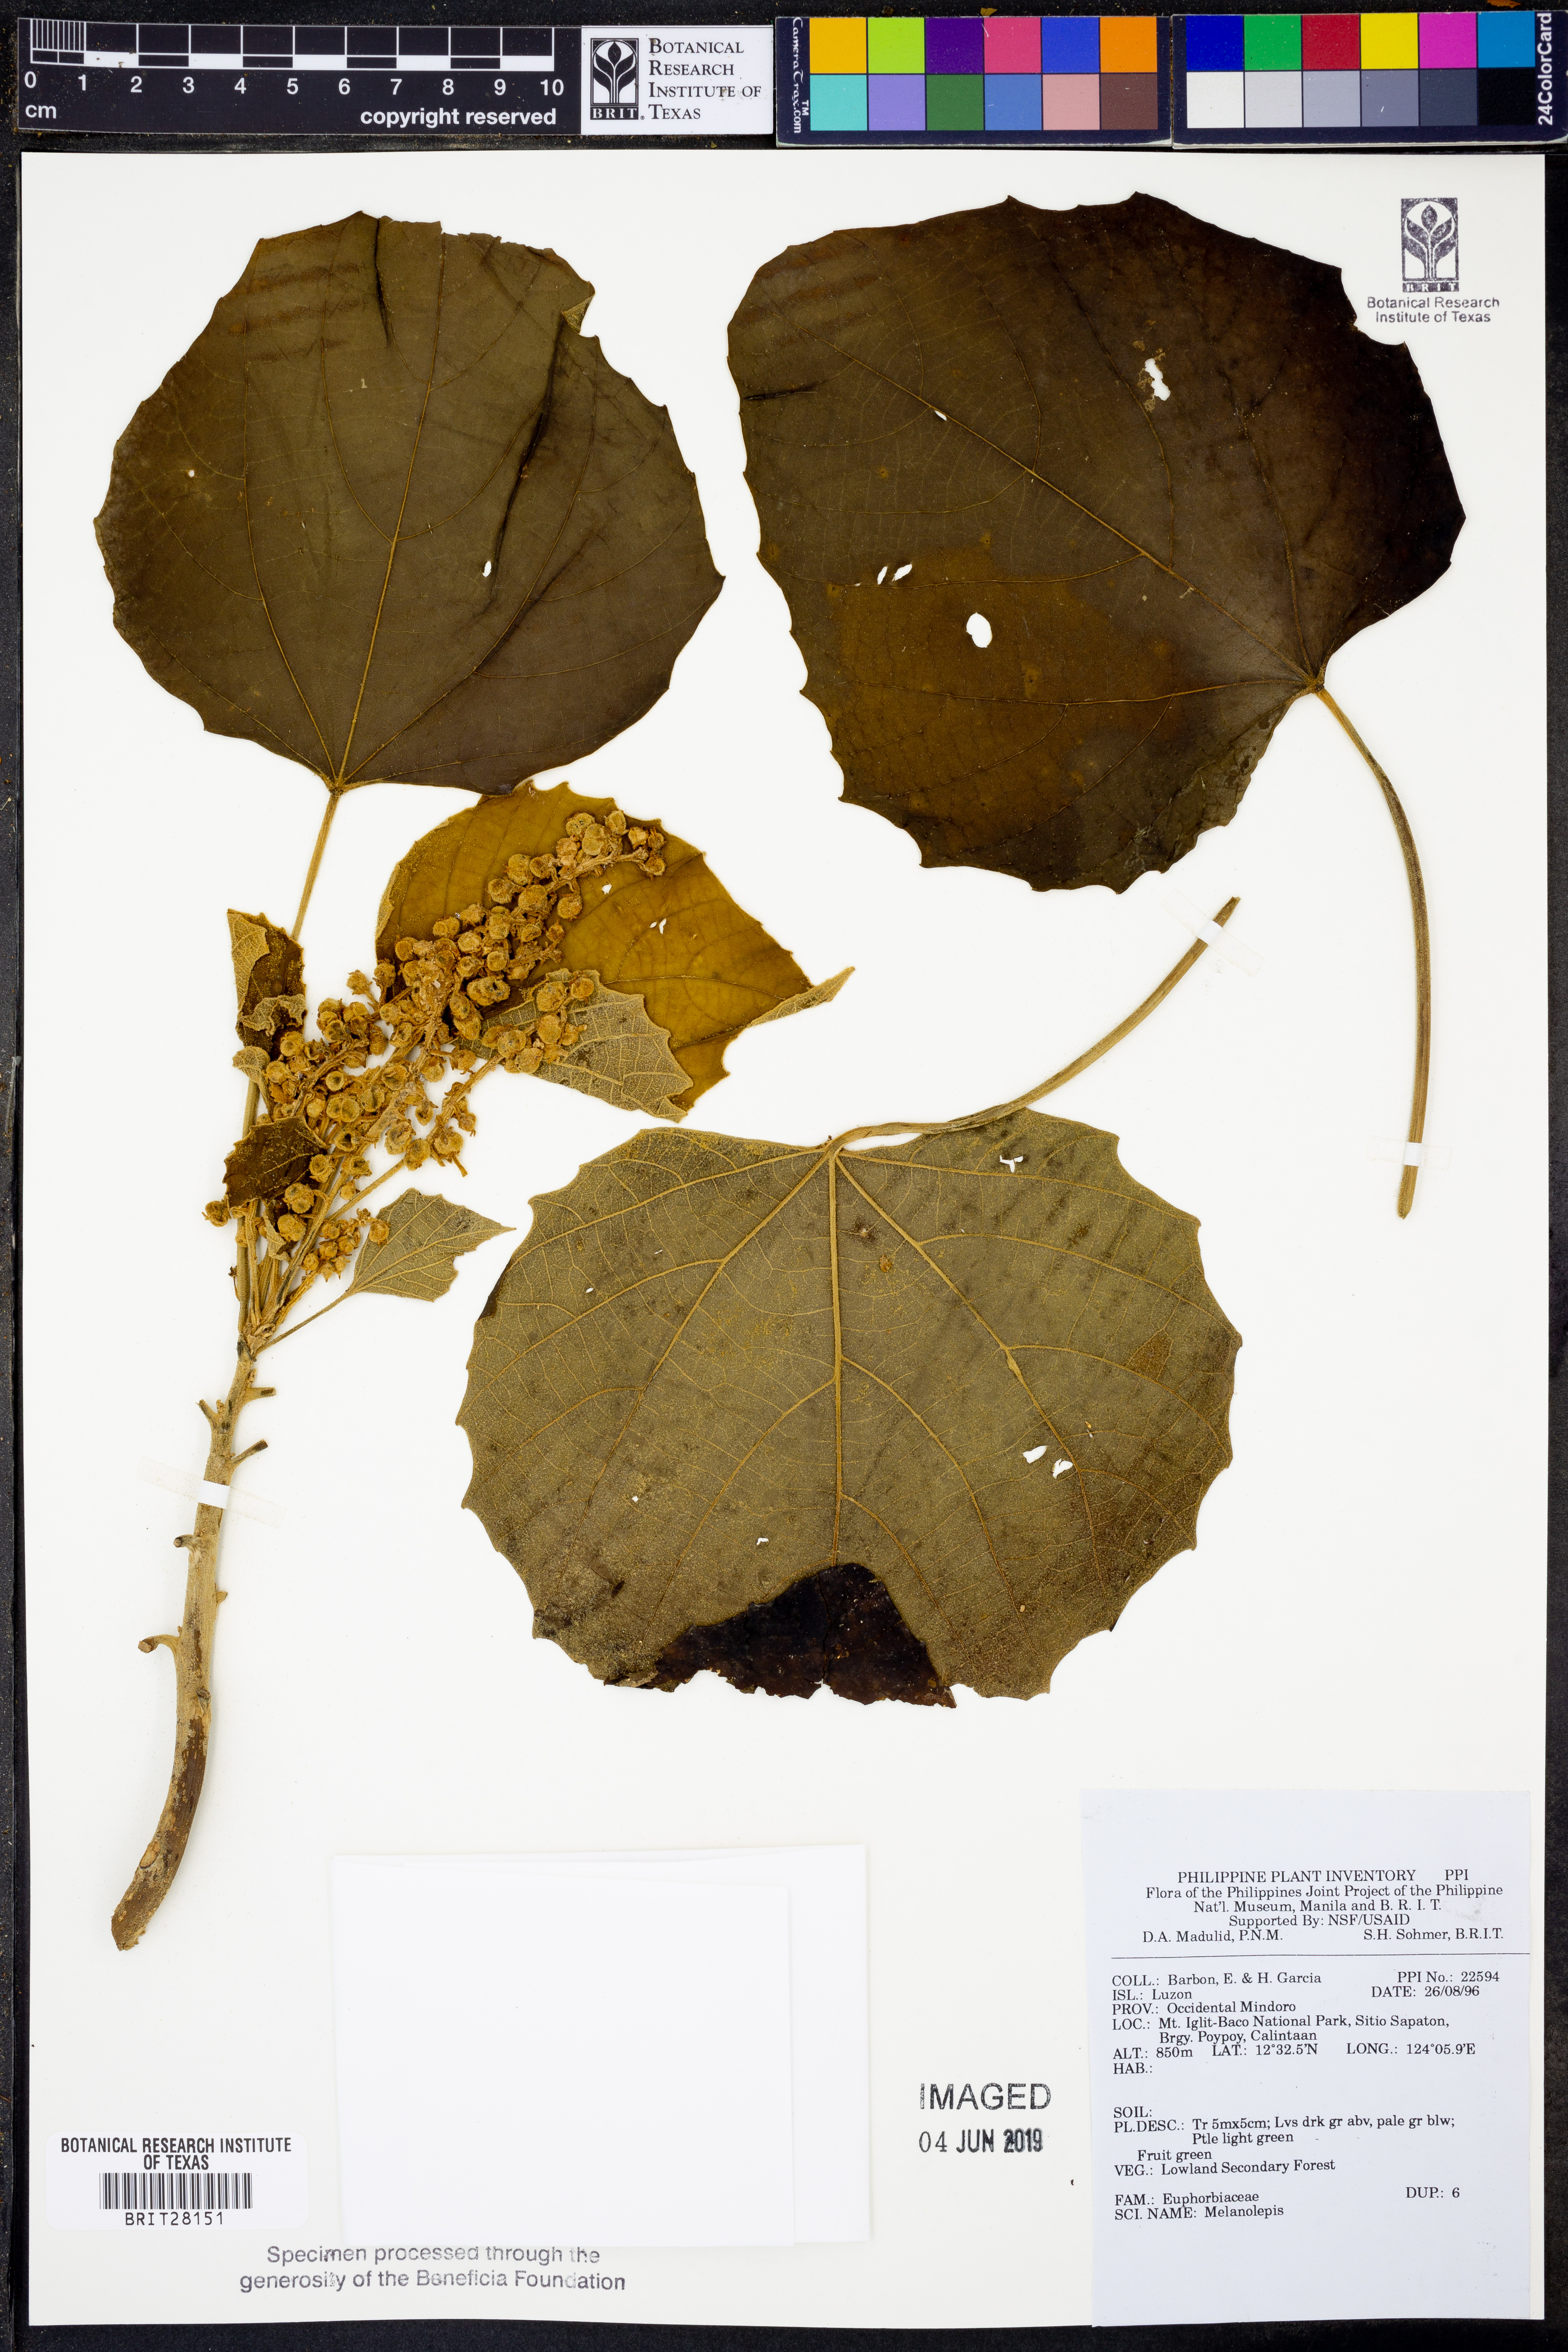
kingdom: Plantae
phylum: Tracheophyta
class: Magnoliopsida
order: Malpighiales
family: Euphorbiaceae
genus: Melanolepis
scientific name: Melanolepis
